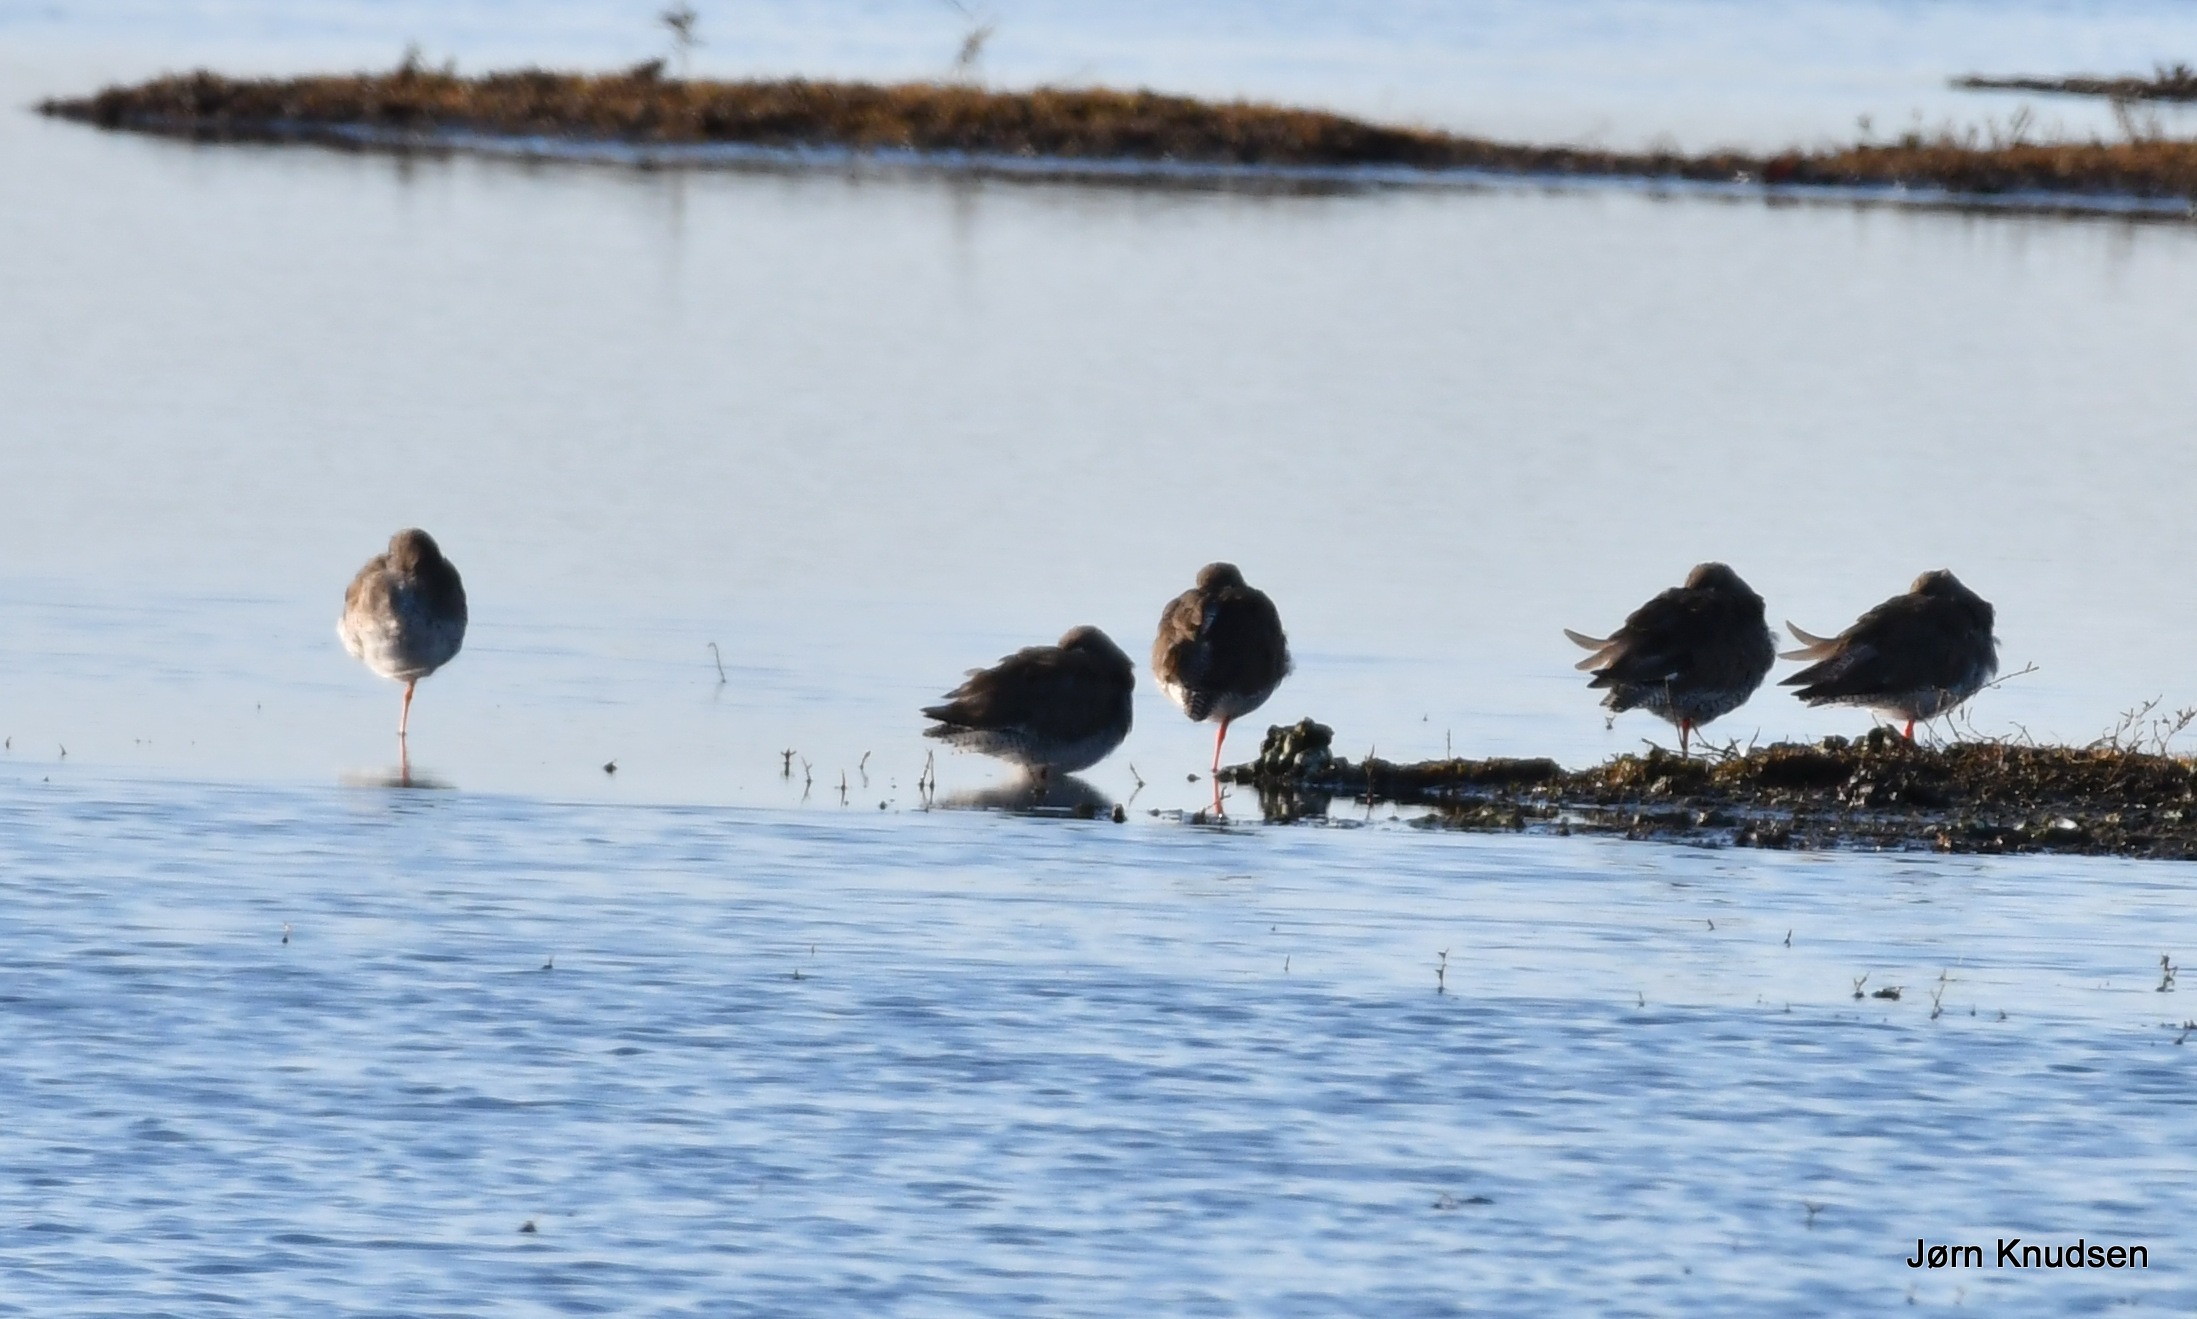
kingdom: Animalia
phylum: Chordata
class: Aves
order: Charadriiformes
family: Scolopacidae
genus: Tringa
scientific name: Tringa totanus
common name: Rødben
